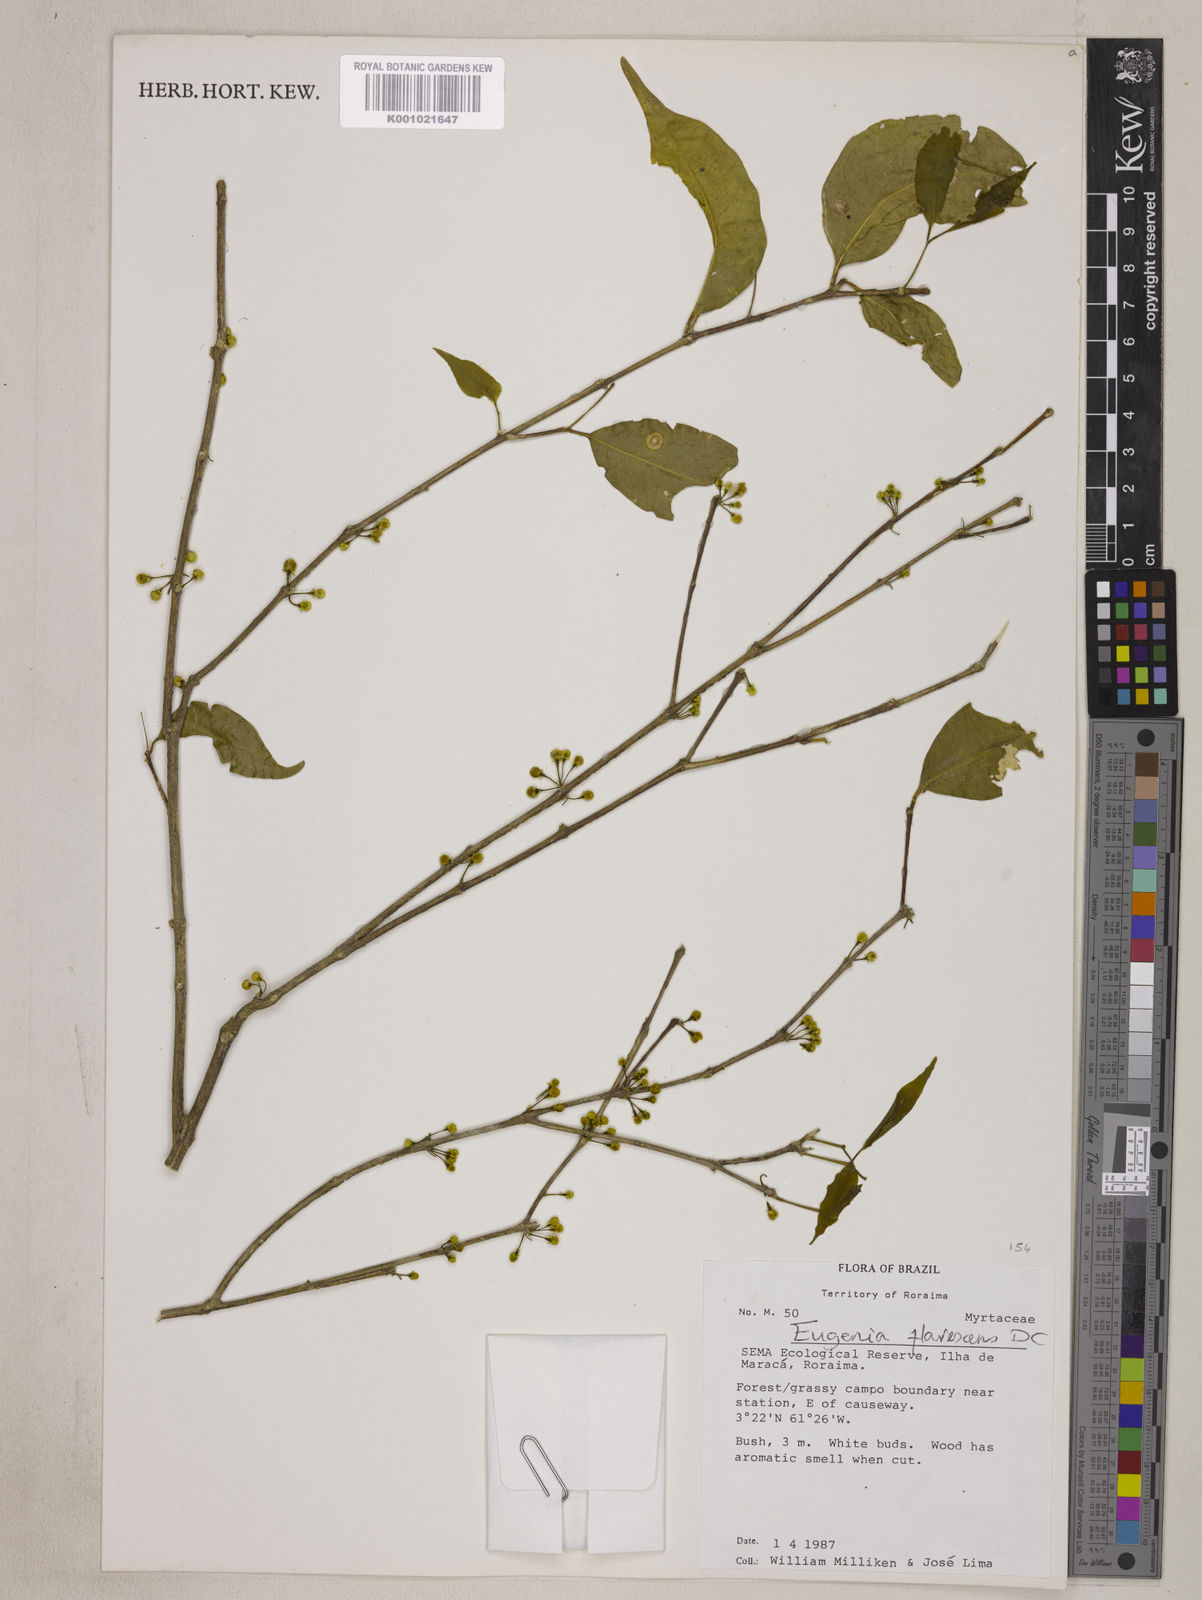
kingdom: Plantae
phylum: Tracheophyta
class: Magnoliopsida
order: Myrtales
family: Myrtaceae
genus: Eugenia
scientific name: Eugenia flavescens
